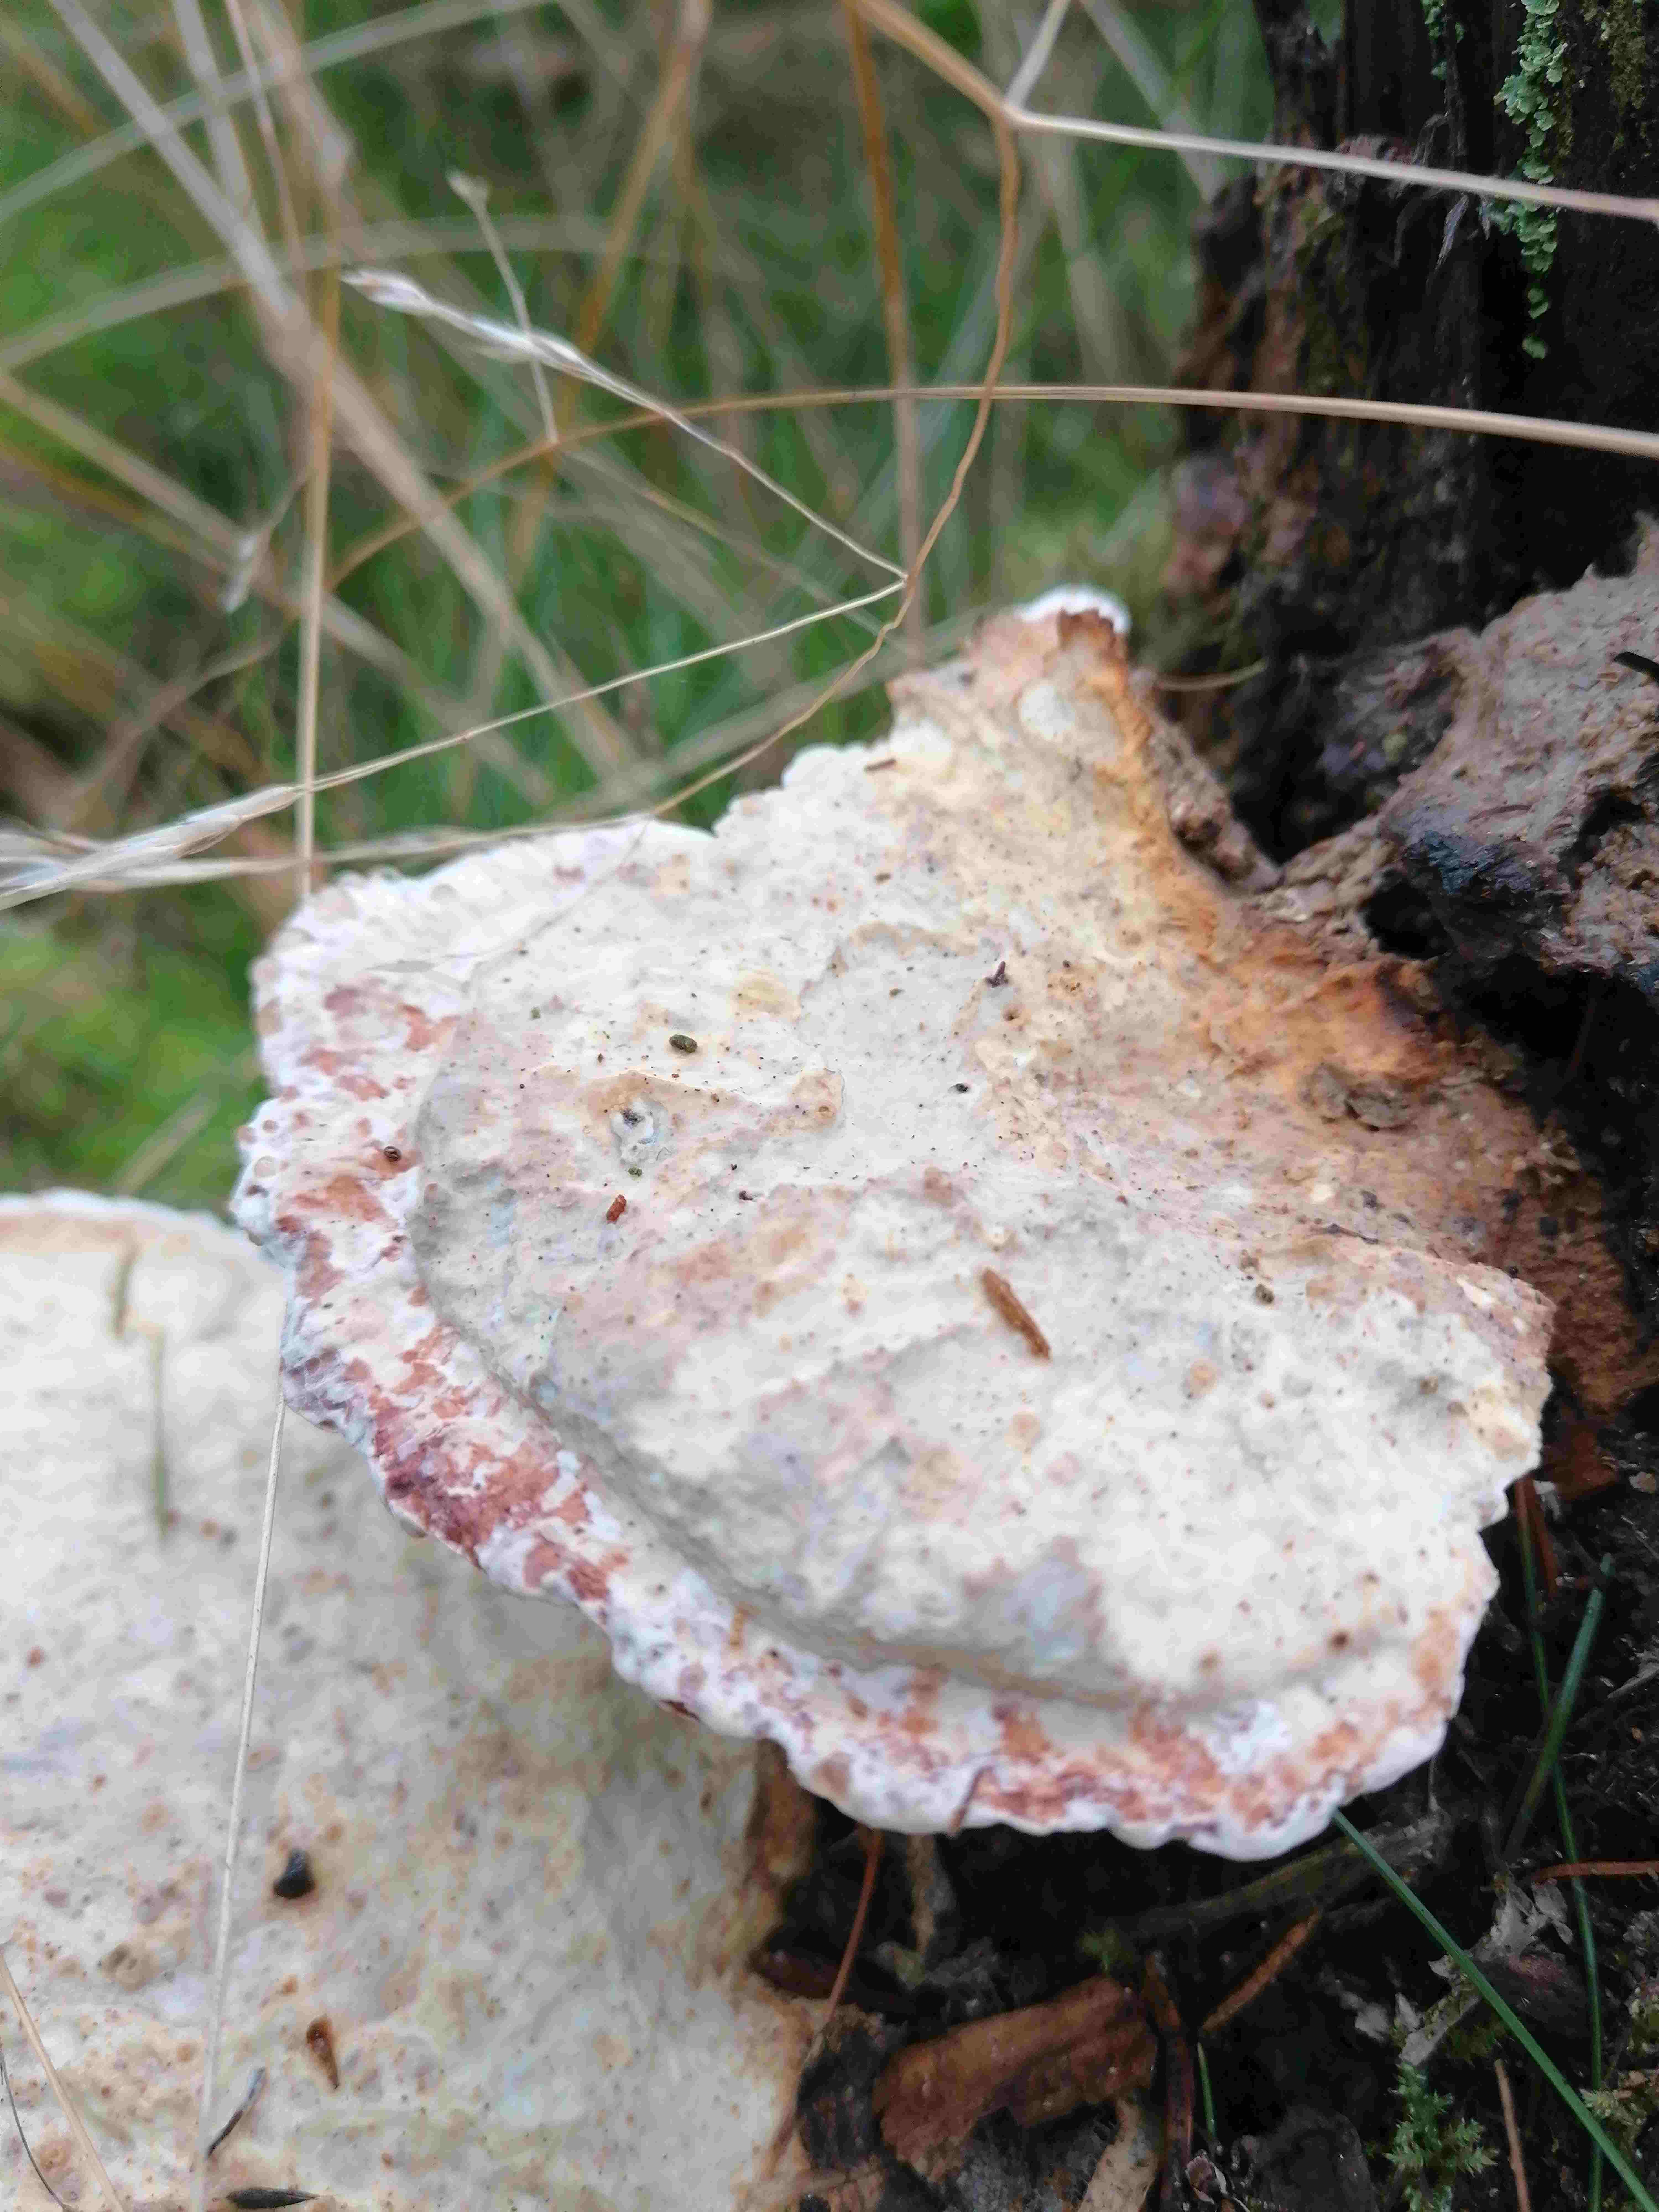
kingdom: Fungi
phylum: Basidiomycota
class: Agaricomycetes
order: Polyporales
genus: Calcipostia
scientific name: Calcipostia guttulata
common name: dråbe-kødporesvamp
